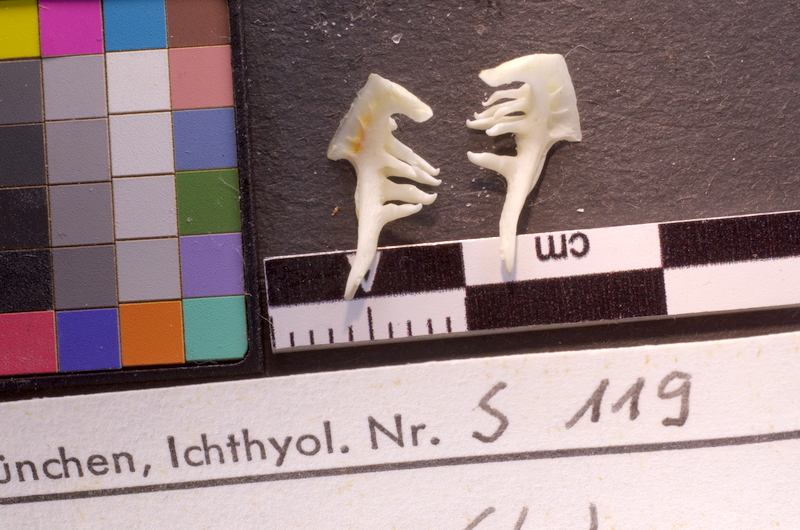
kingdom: Animalia
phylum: Chordata
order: Cypriniformes
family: Cyprinidae
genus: Squalius
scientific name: Squalius cephalus
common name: Chub
